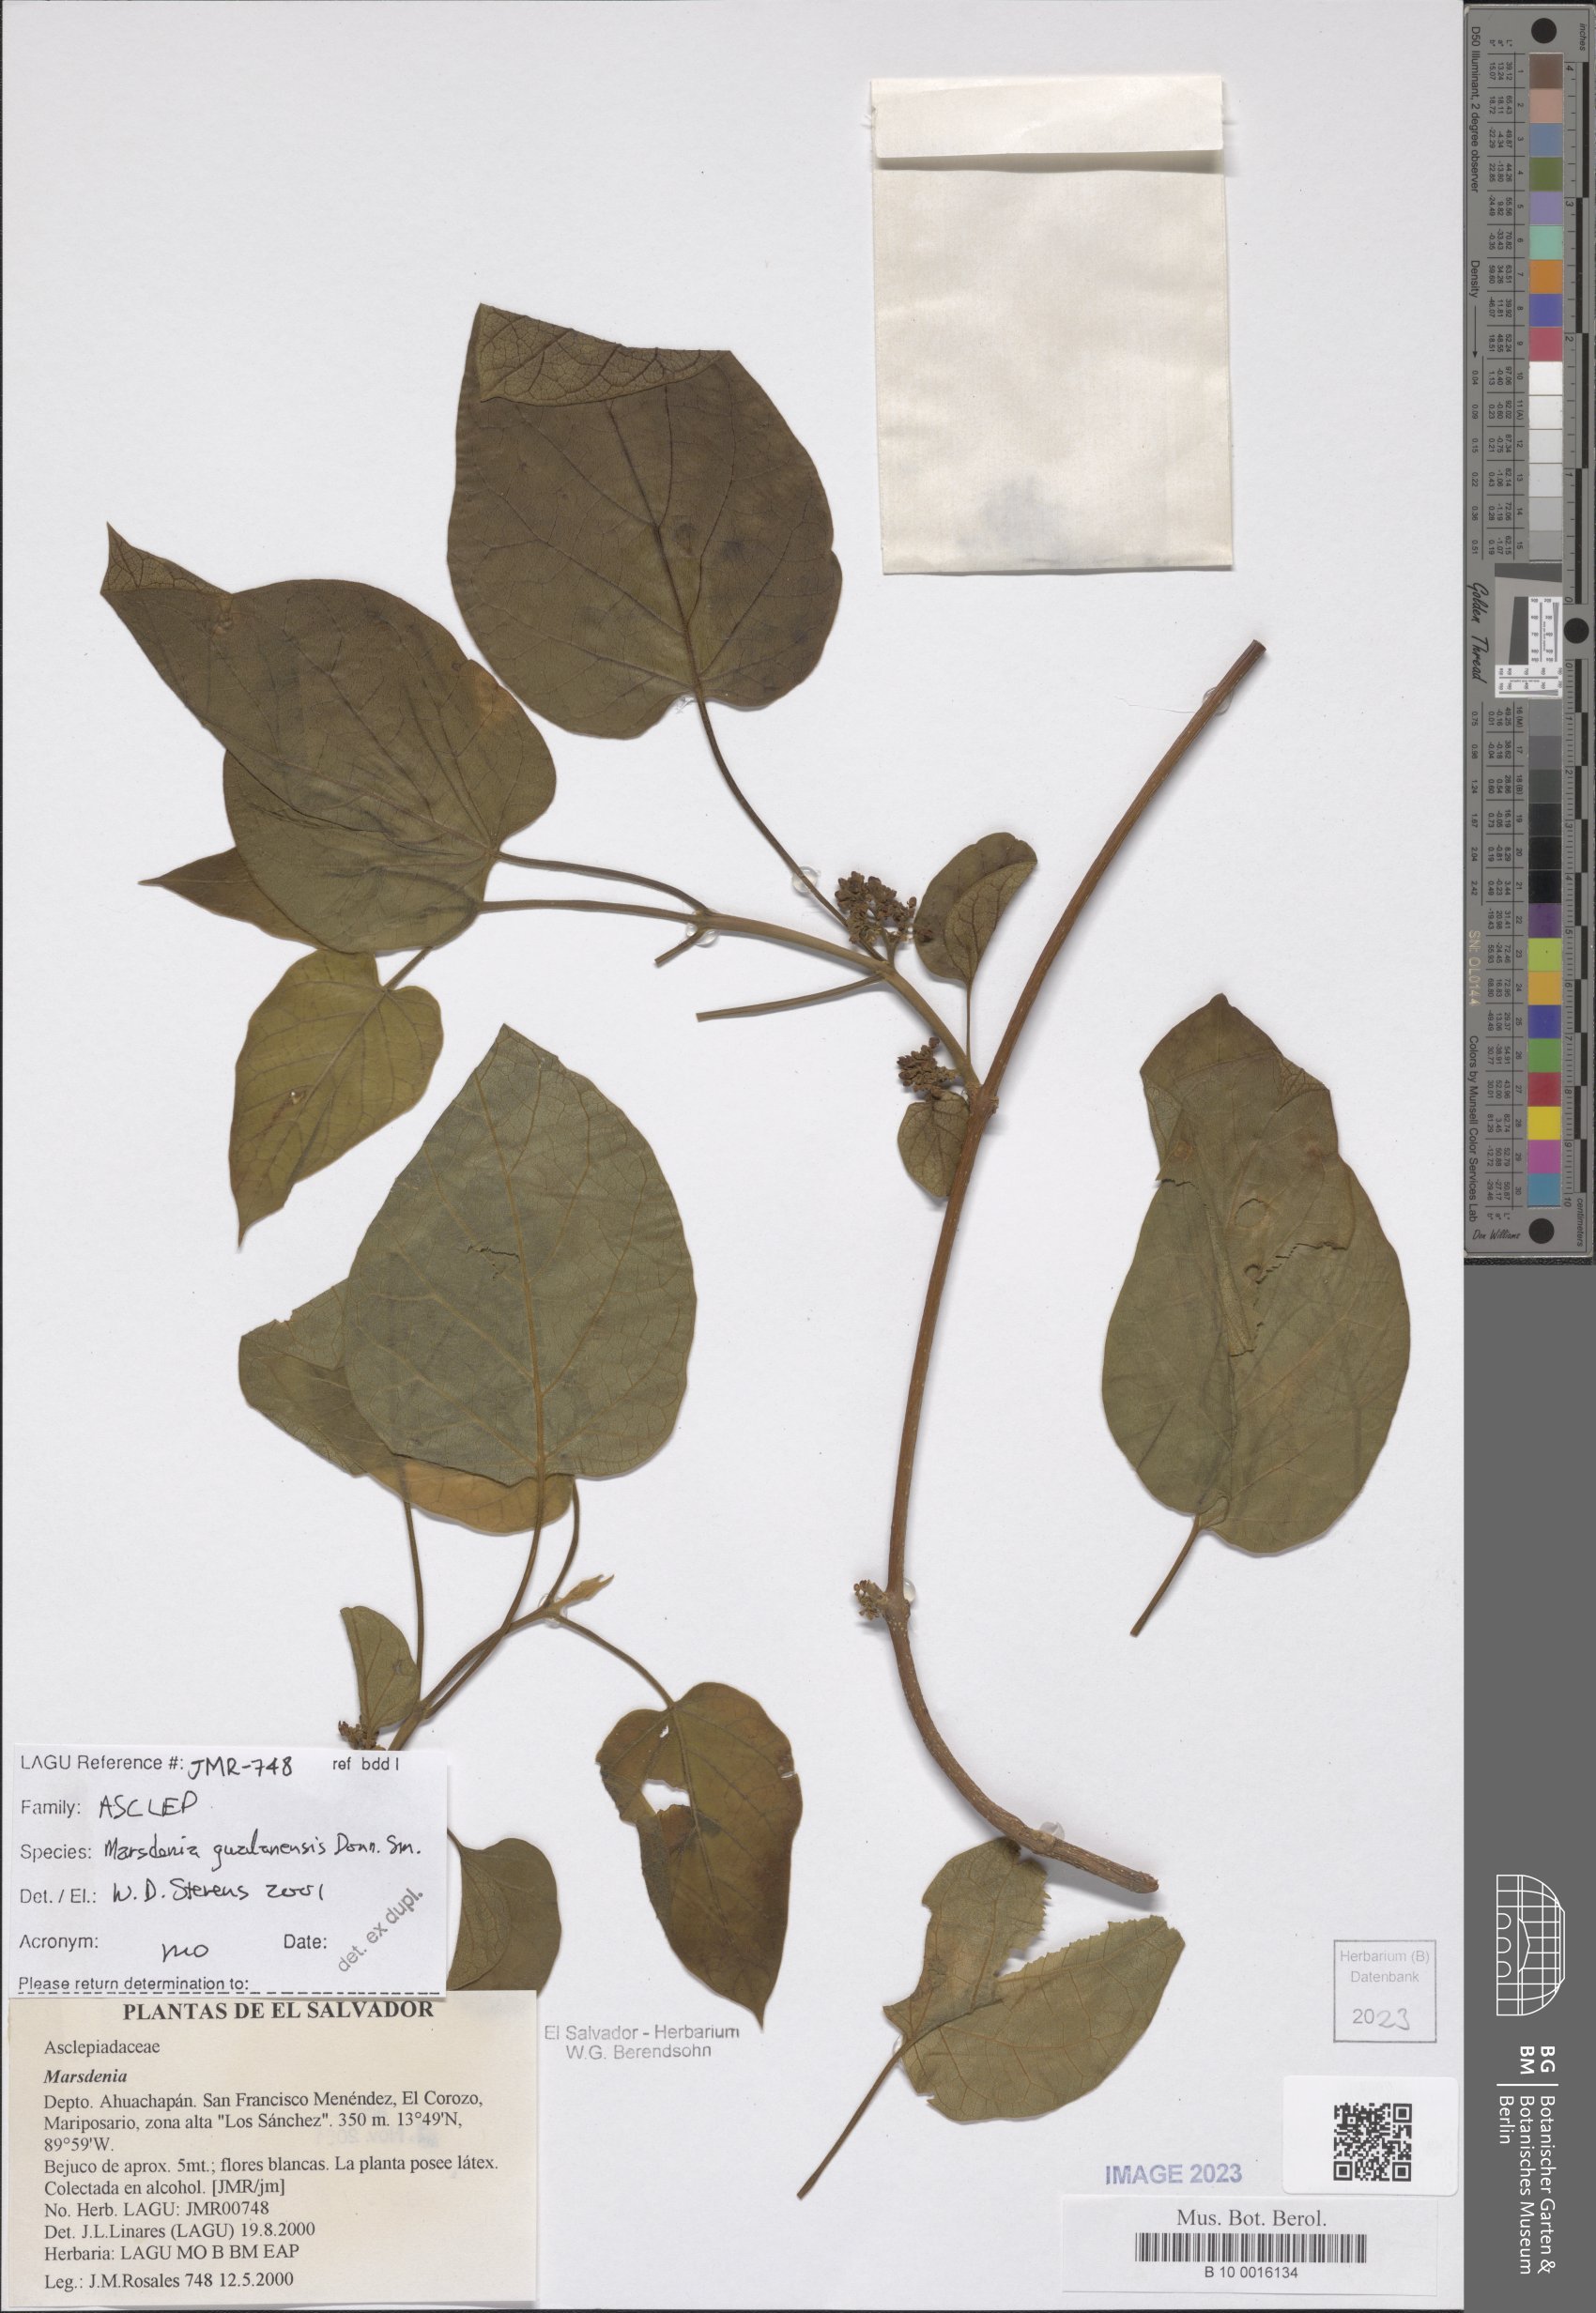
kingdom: Plantae
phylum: Tracheophyta
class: Magnoliopsida
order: Gentianales
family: Apocynaceae
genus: Ruehssia
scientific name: Ruehssia gualanensis
